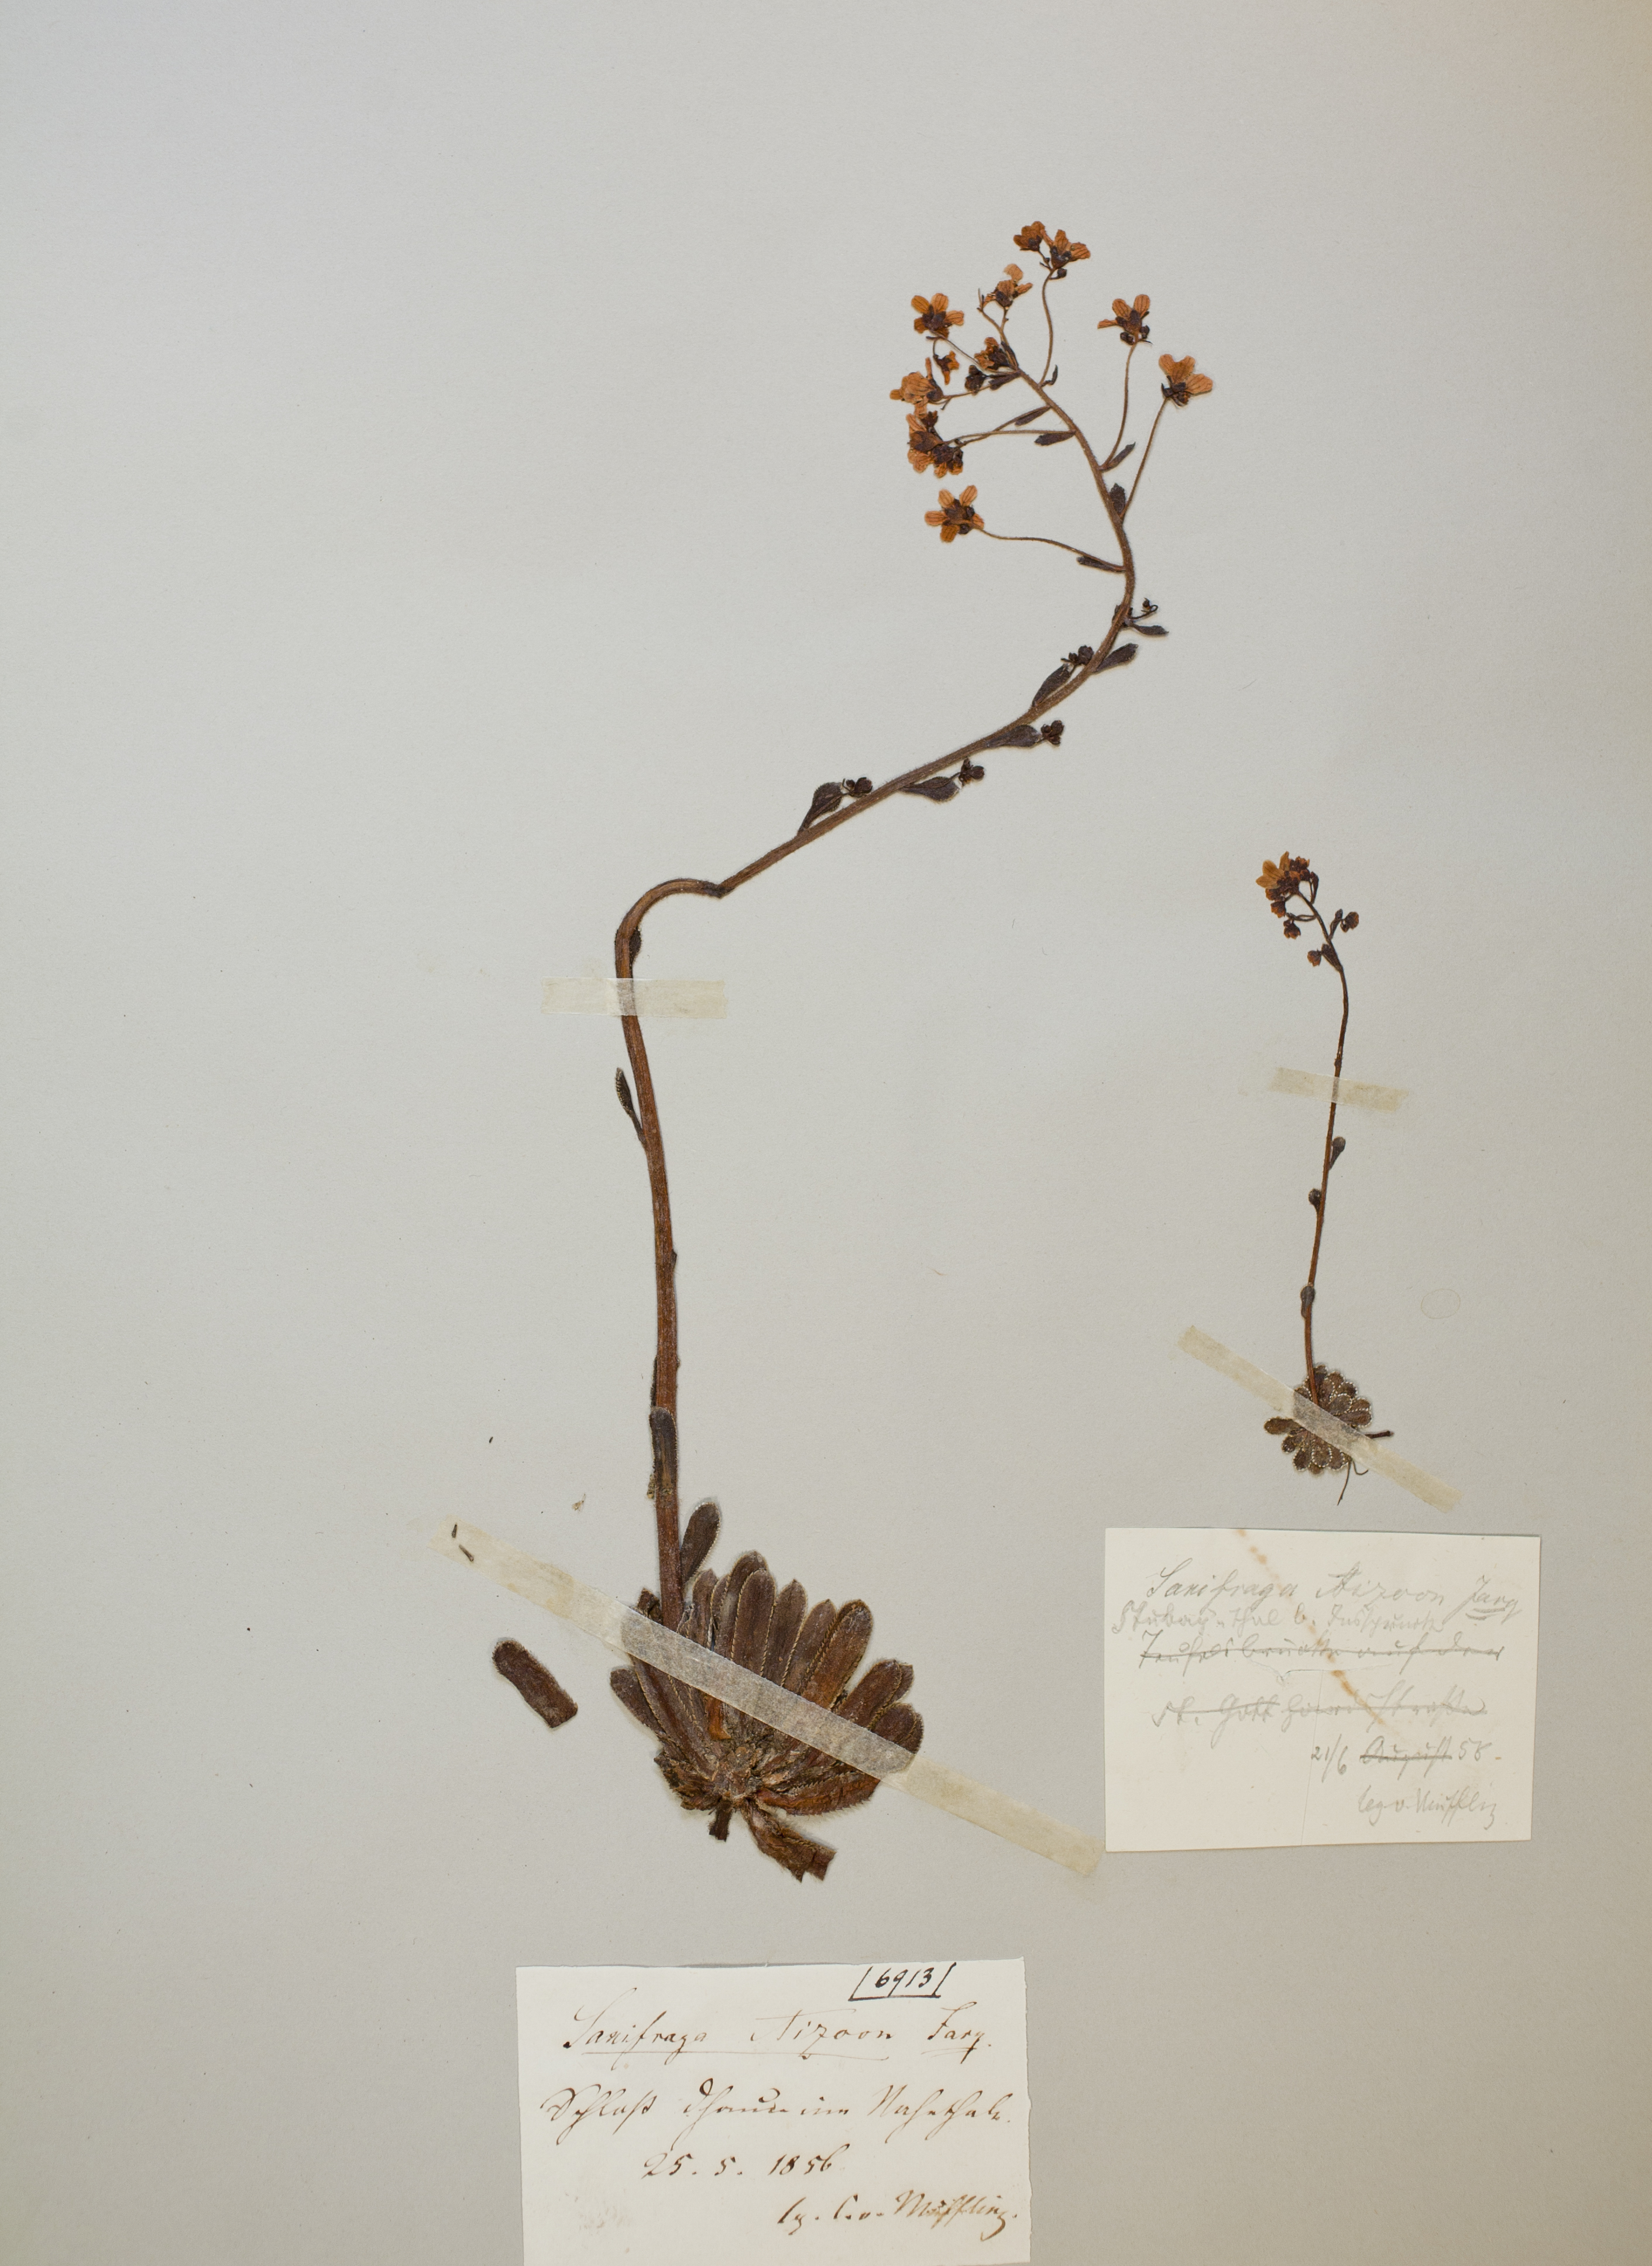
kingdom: Plantae
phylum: Tracheophyta
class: Magnoliopsida
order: Saxifragales
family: Saxifragaceae
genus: Saxifraga
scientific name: Saxifraga paniculata
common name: Livelong saxifrage
